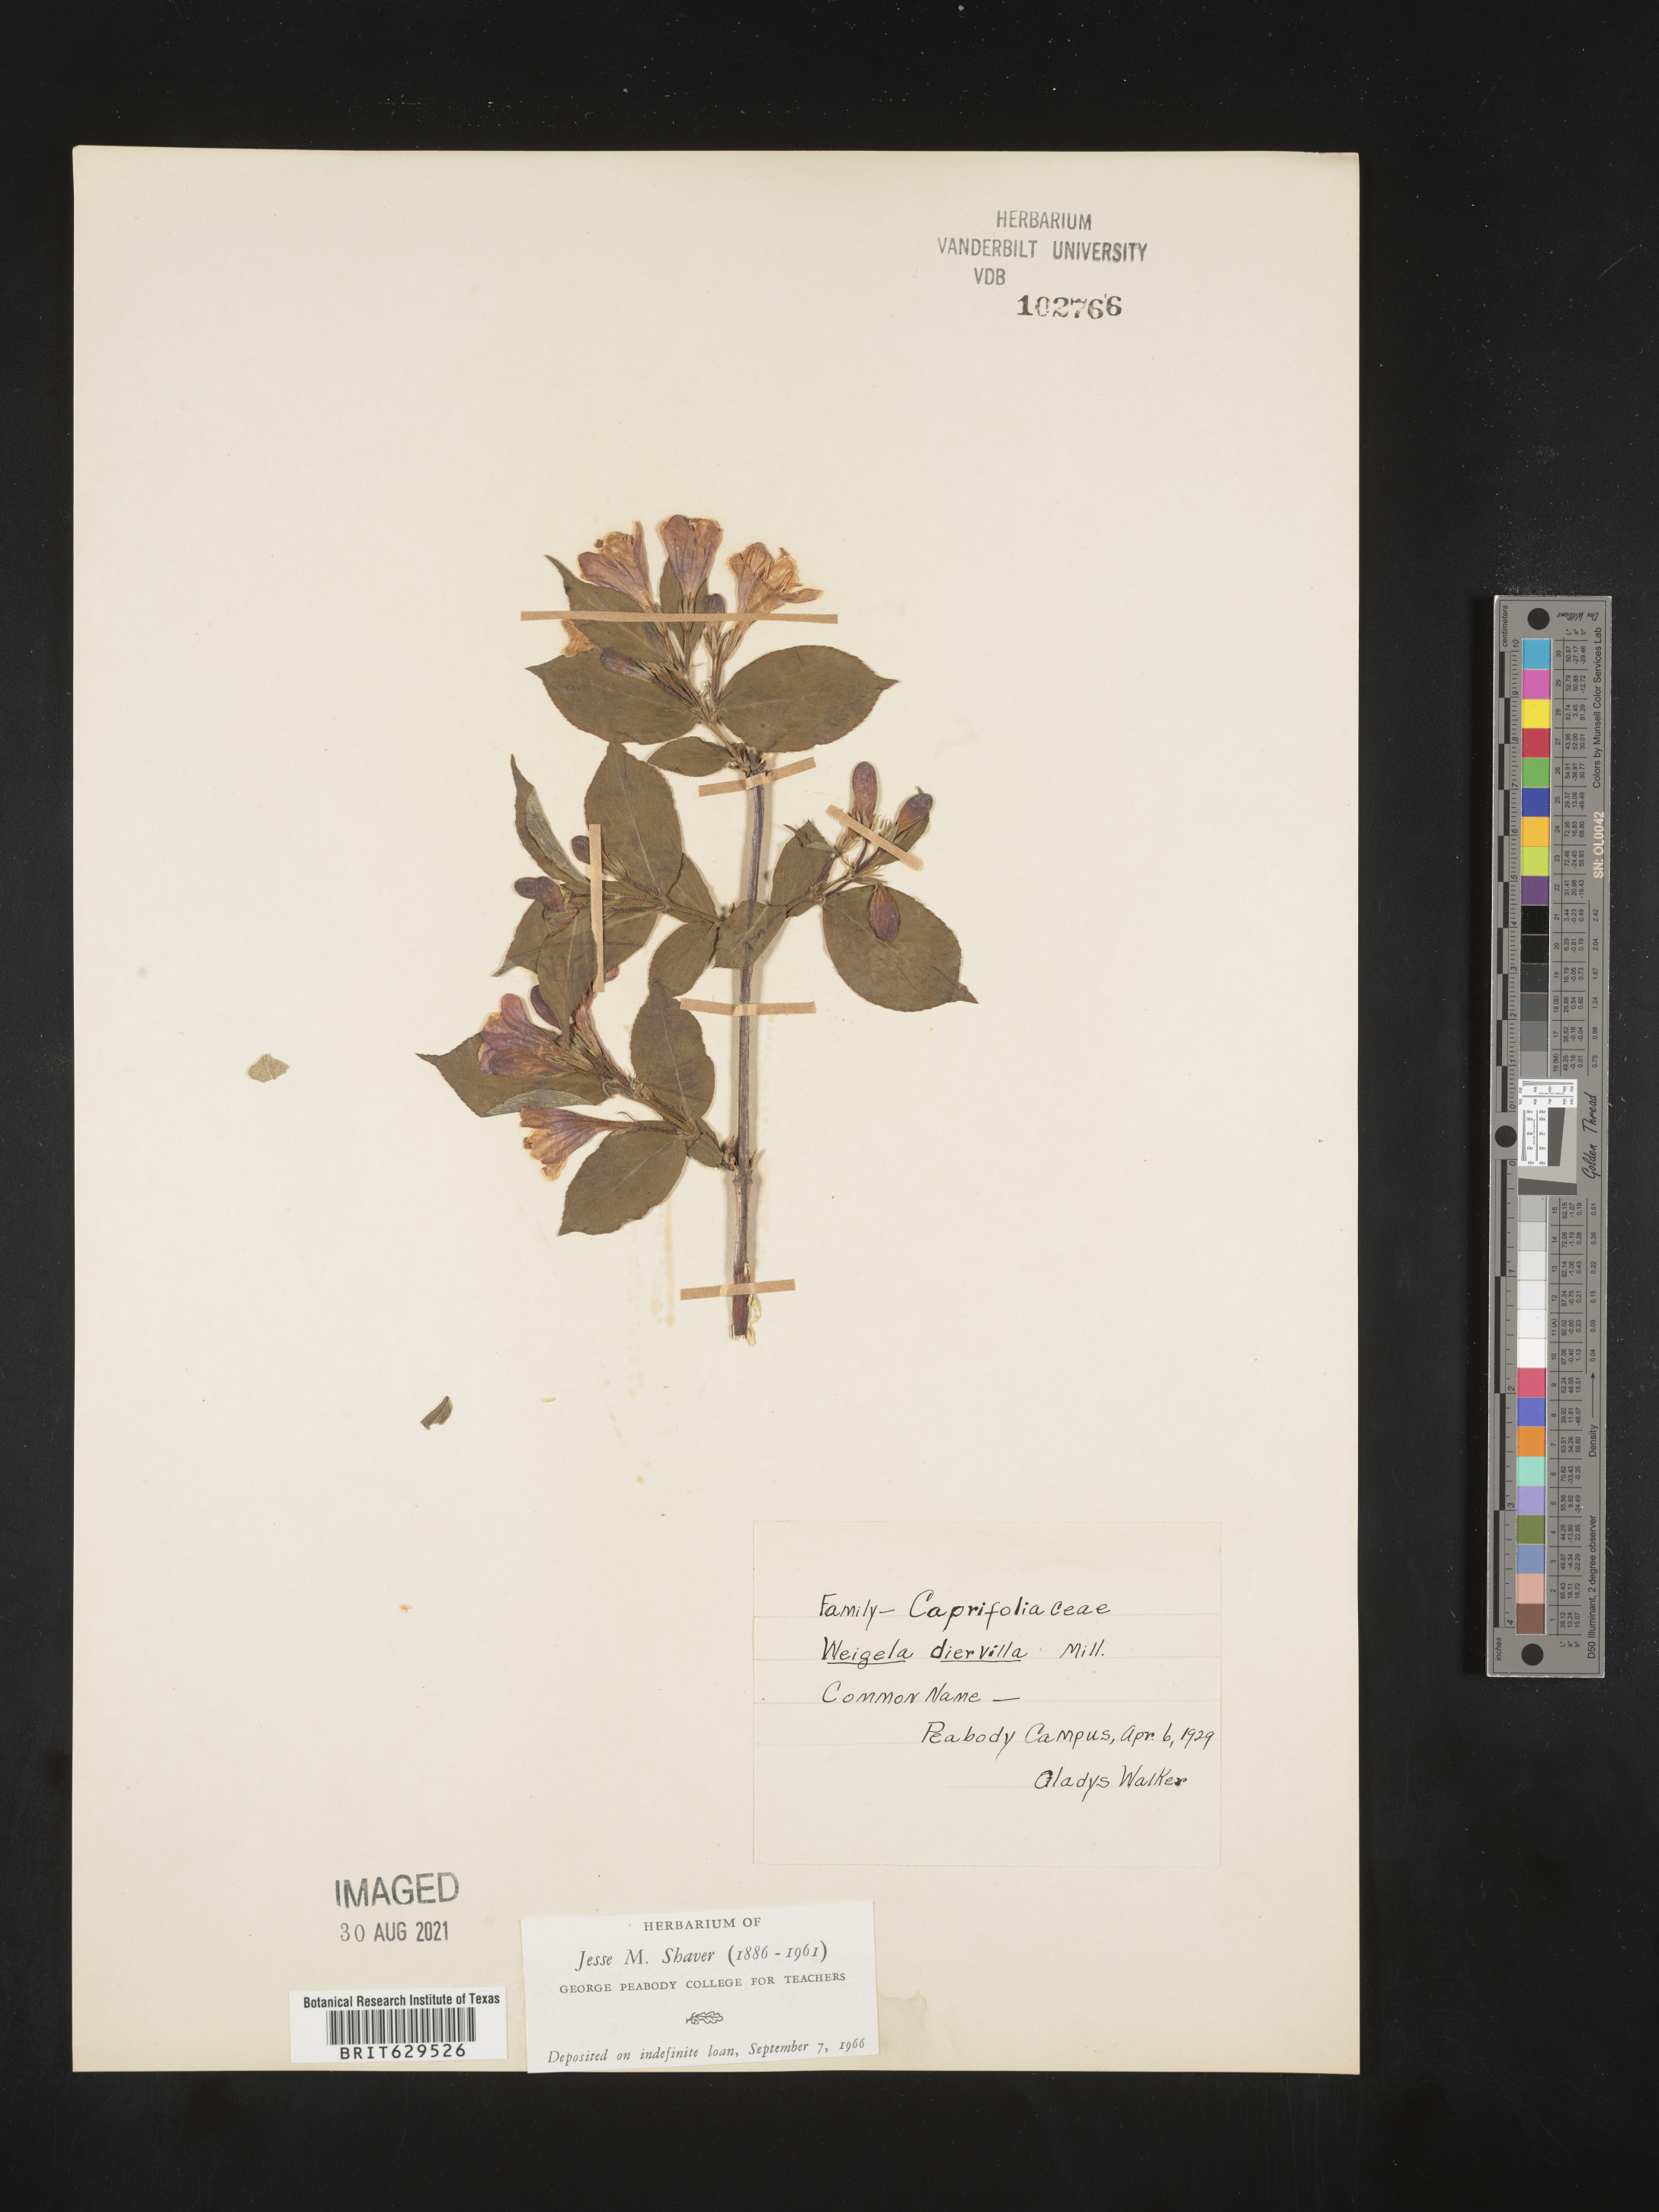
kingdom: Plantae
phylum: Tracheophyta
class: Magnoliopsida
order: Dipsacales
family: Caprifoliaceae
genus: Weigela
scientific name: Weigela
